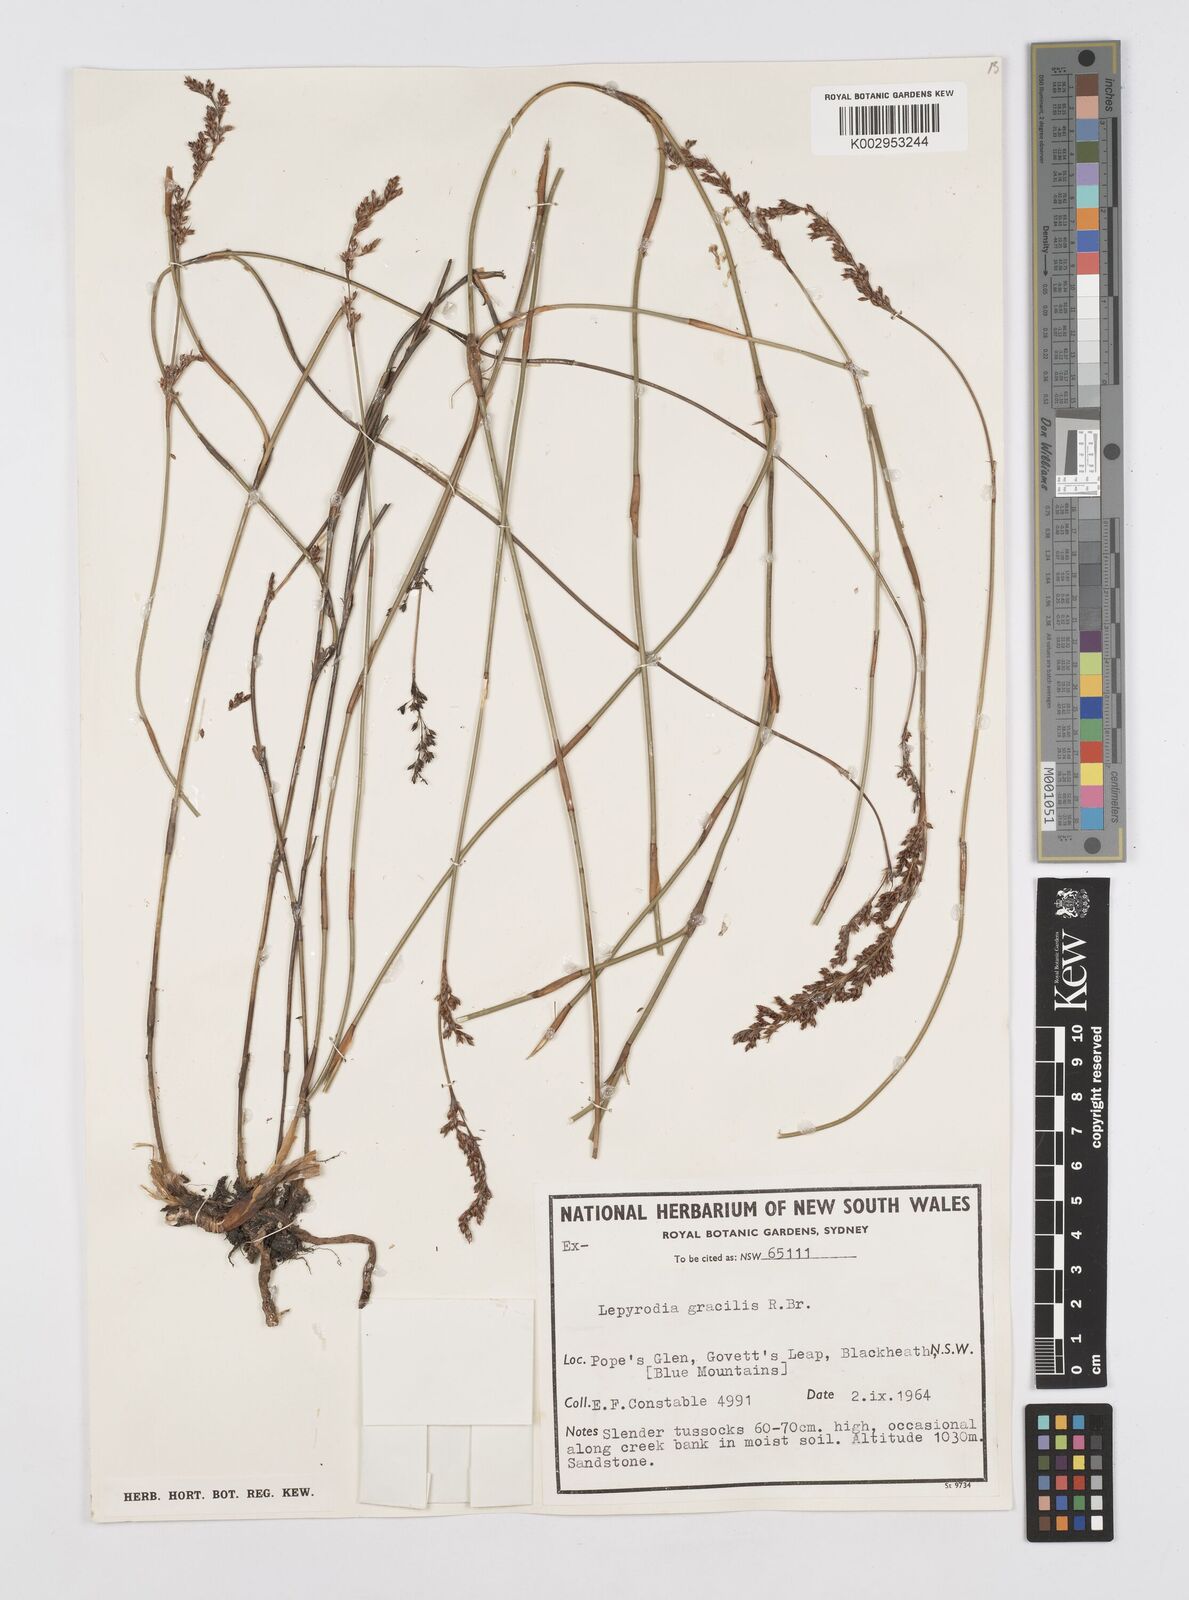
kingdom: Plantae
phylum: Tracheophyta
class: Liliopsida
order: Poales
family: Restionaceae
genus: Sporadanthus
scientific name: Sporadanthus gracilis
